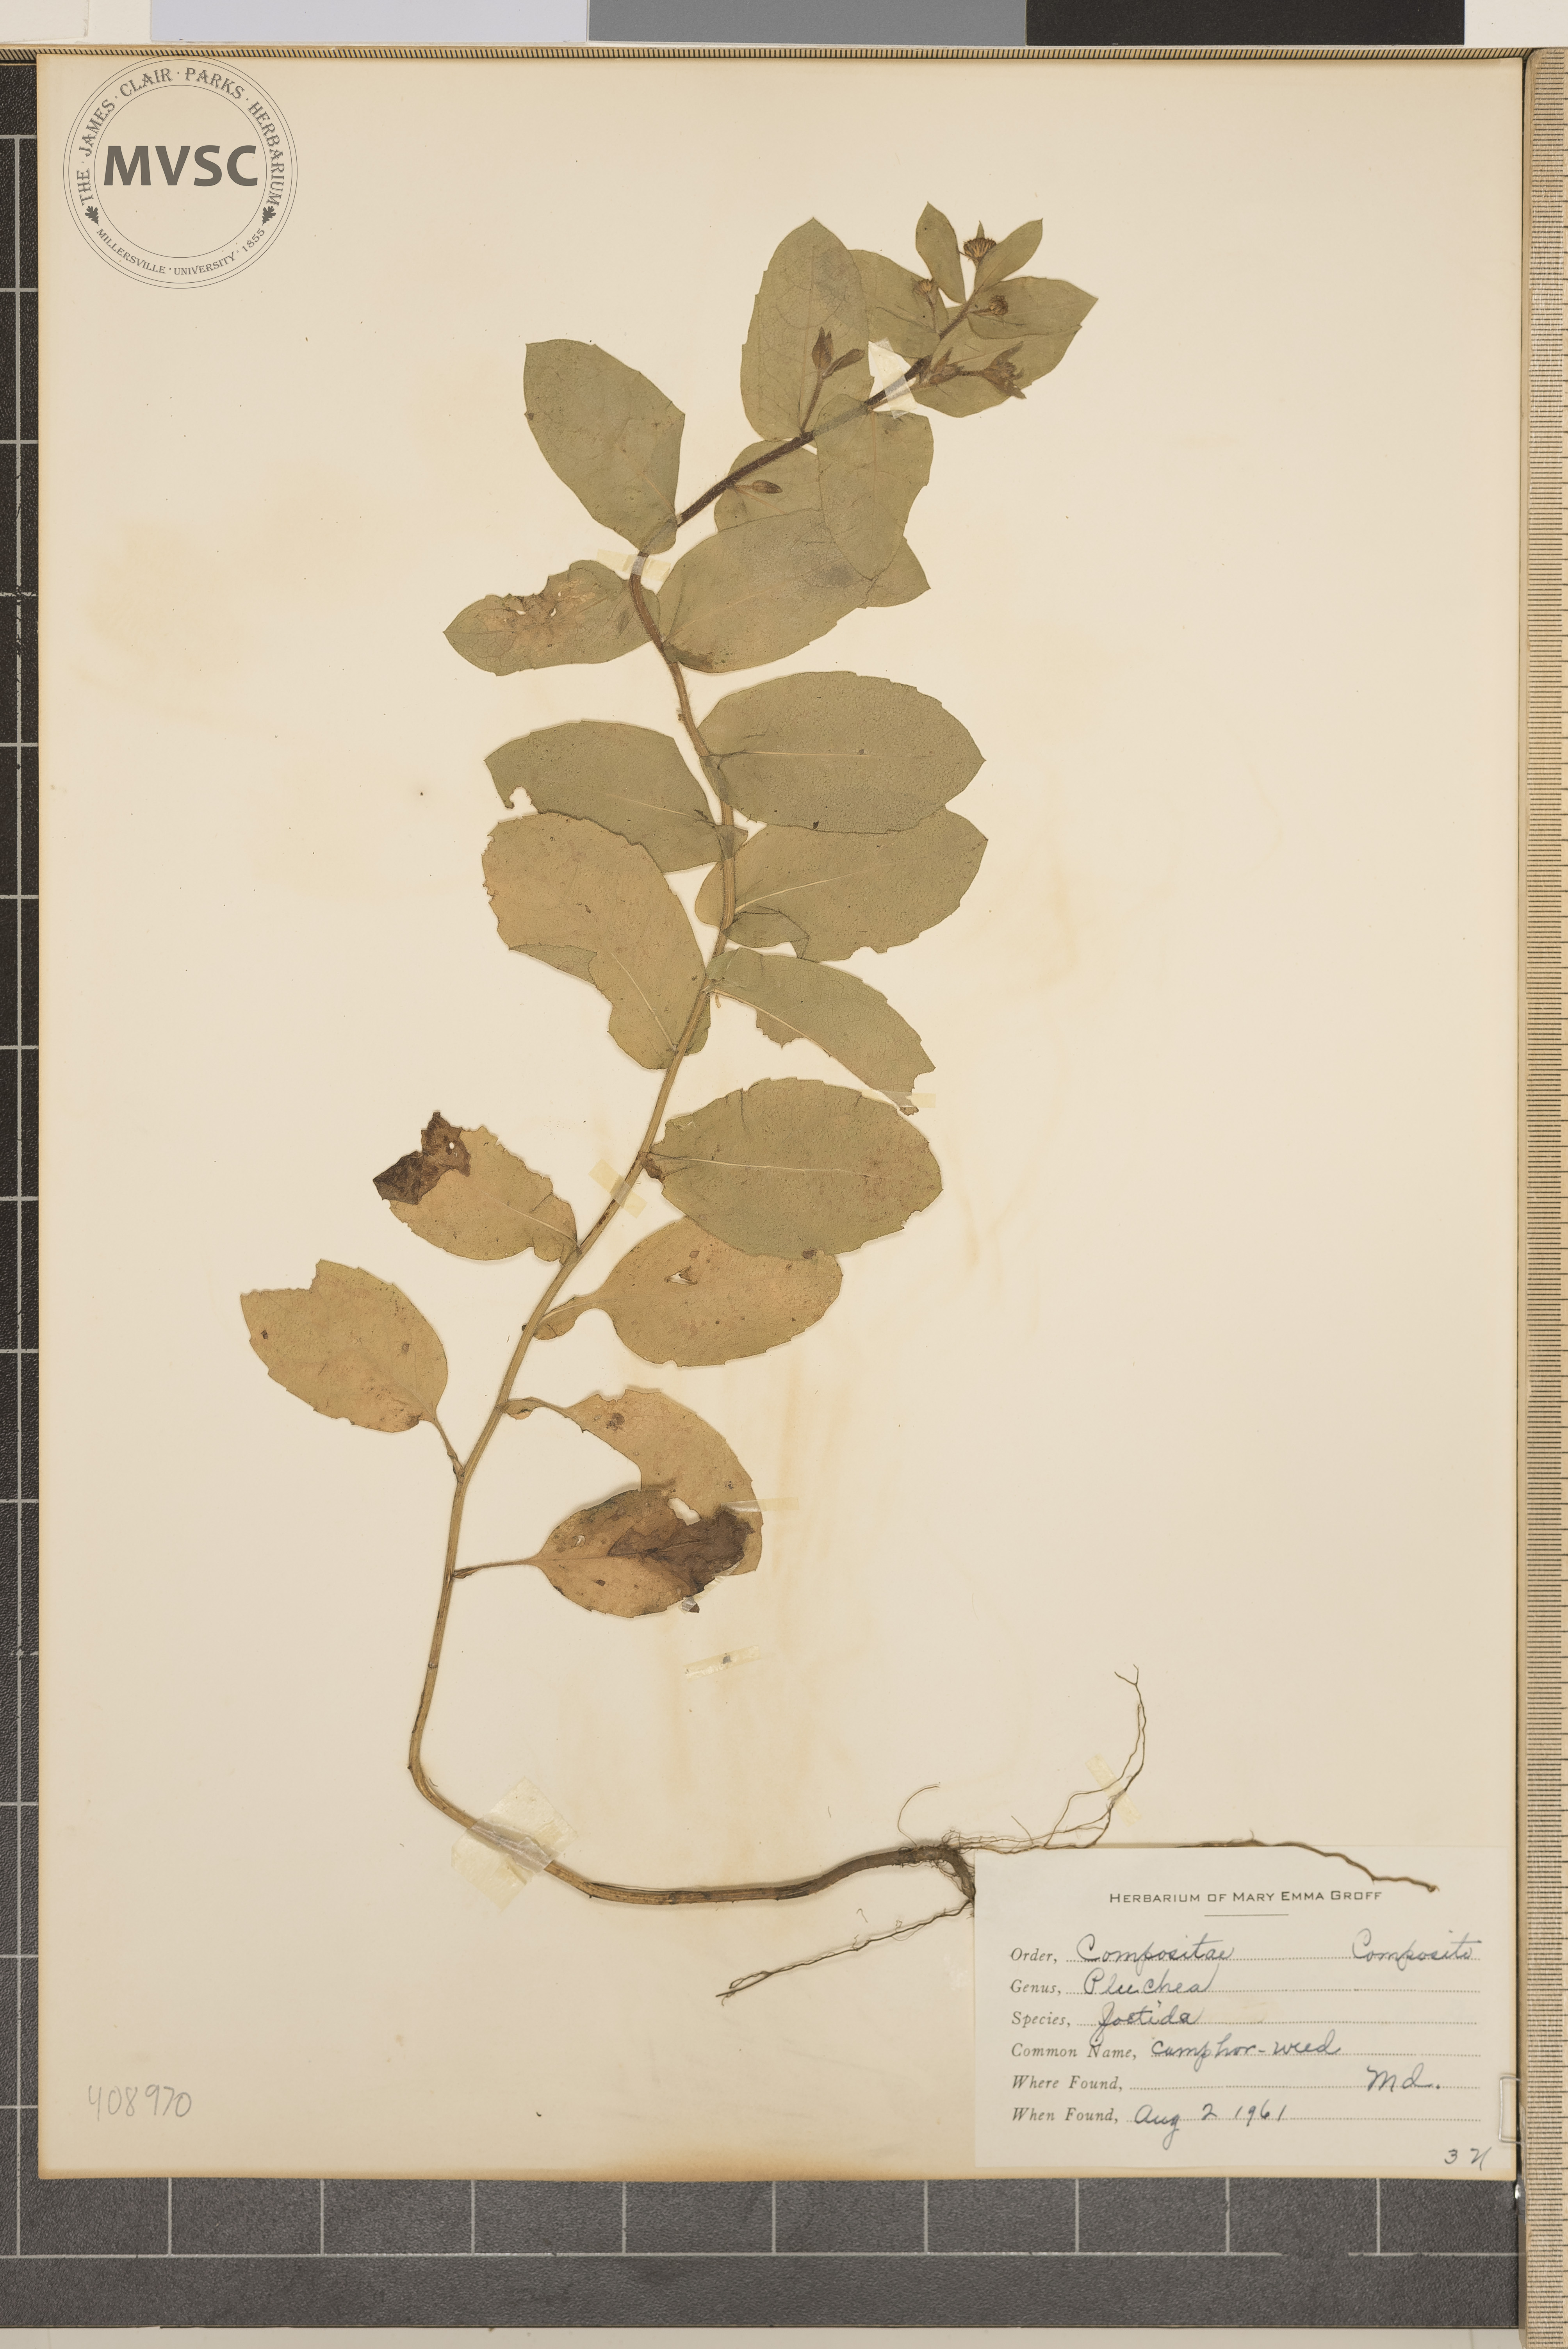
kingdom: Plantae
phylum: Tracheophyta
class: Magnoliopsida
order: Asterales
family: Asteraceae
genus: Pluchea
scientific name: Pluchea foetida
